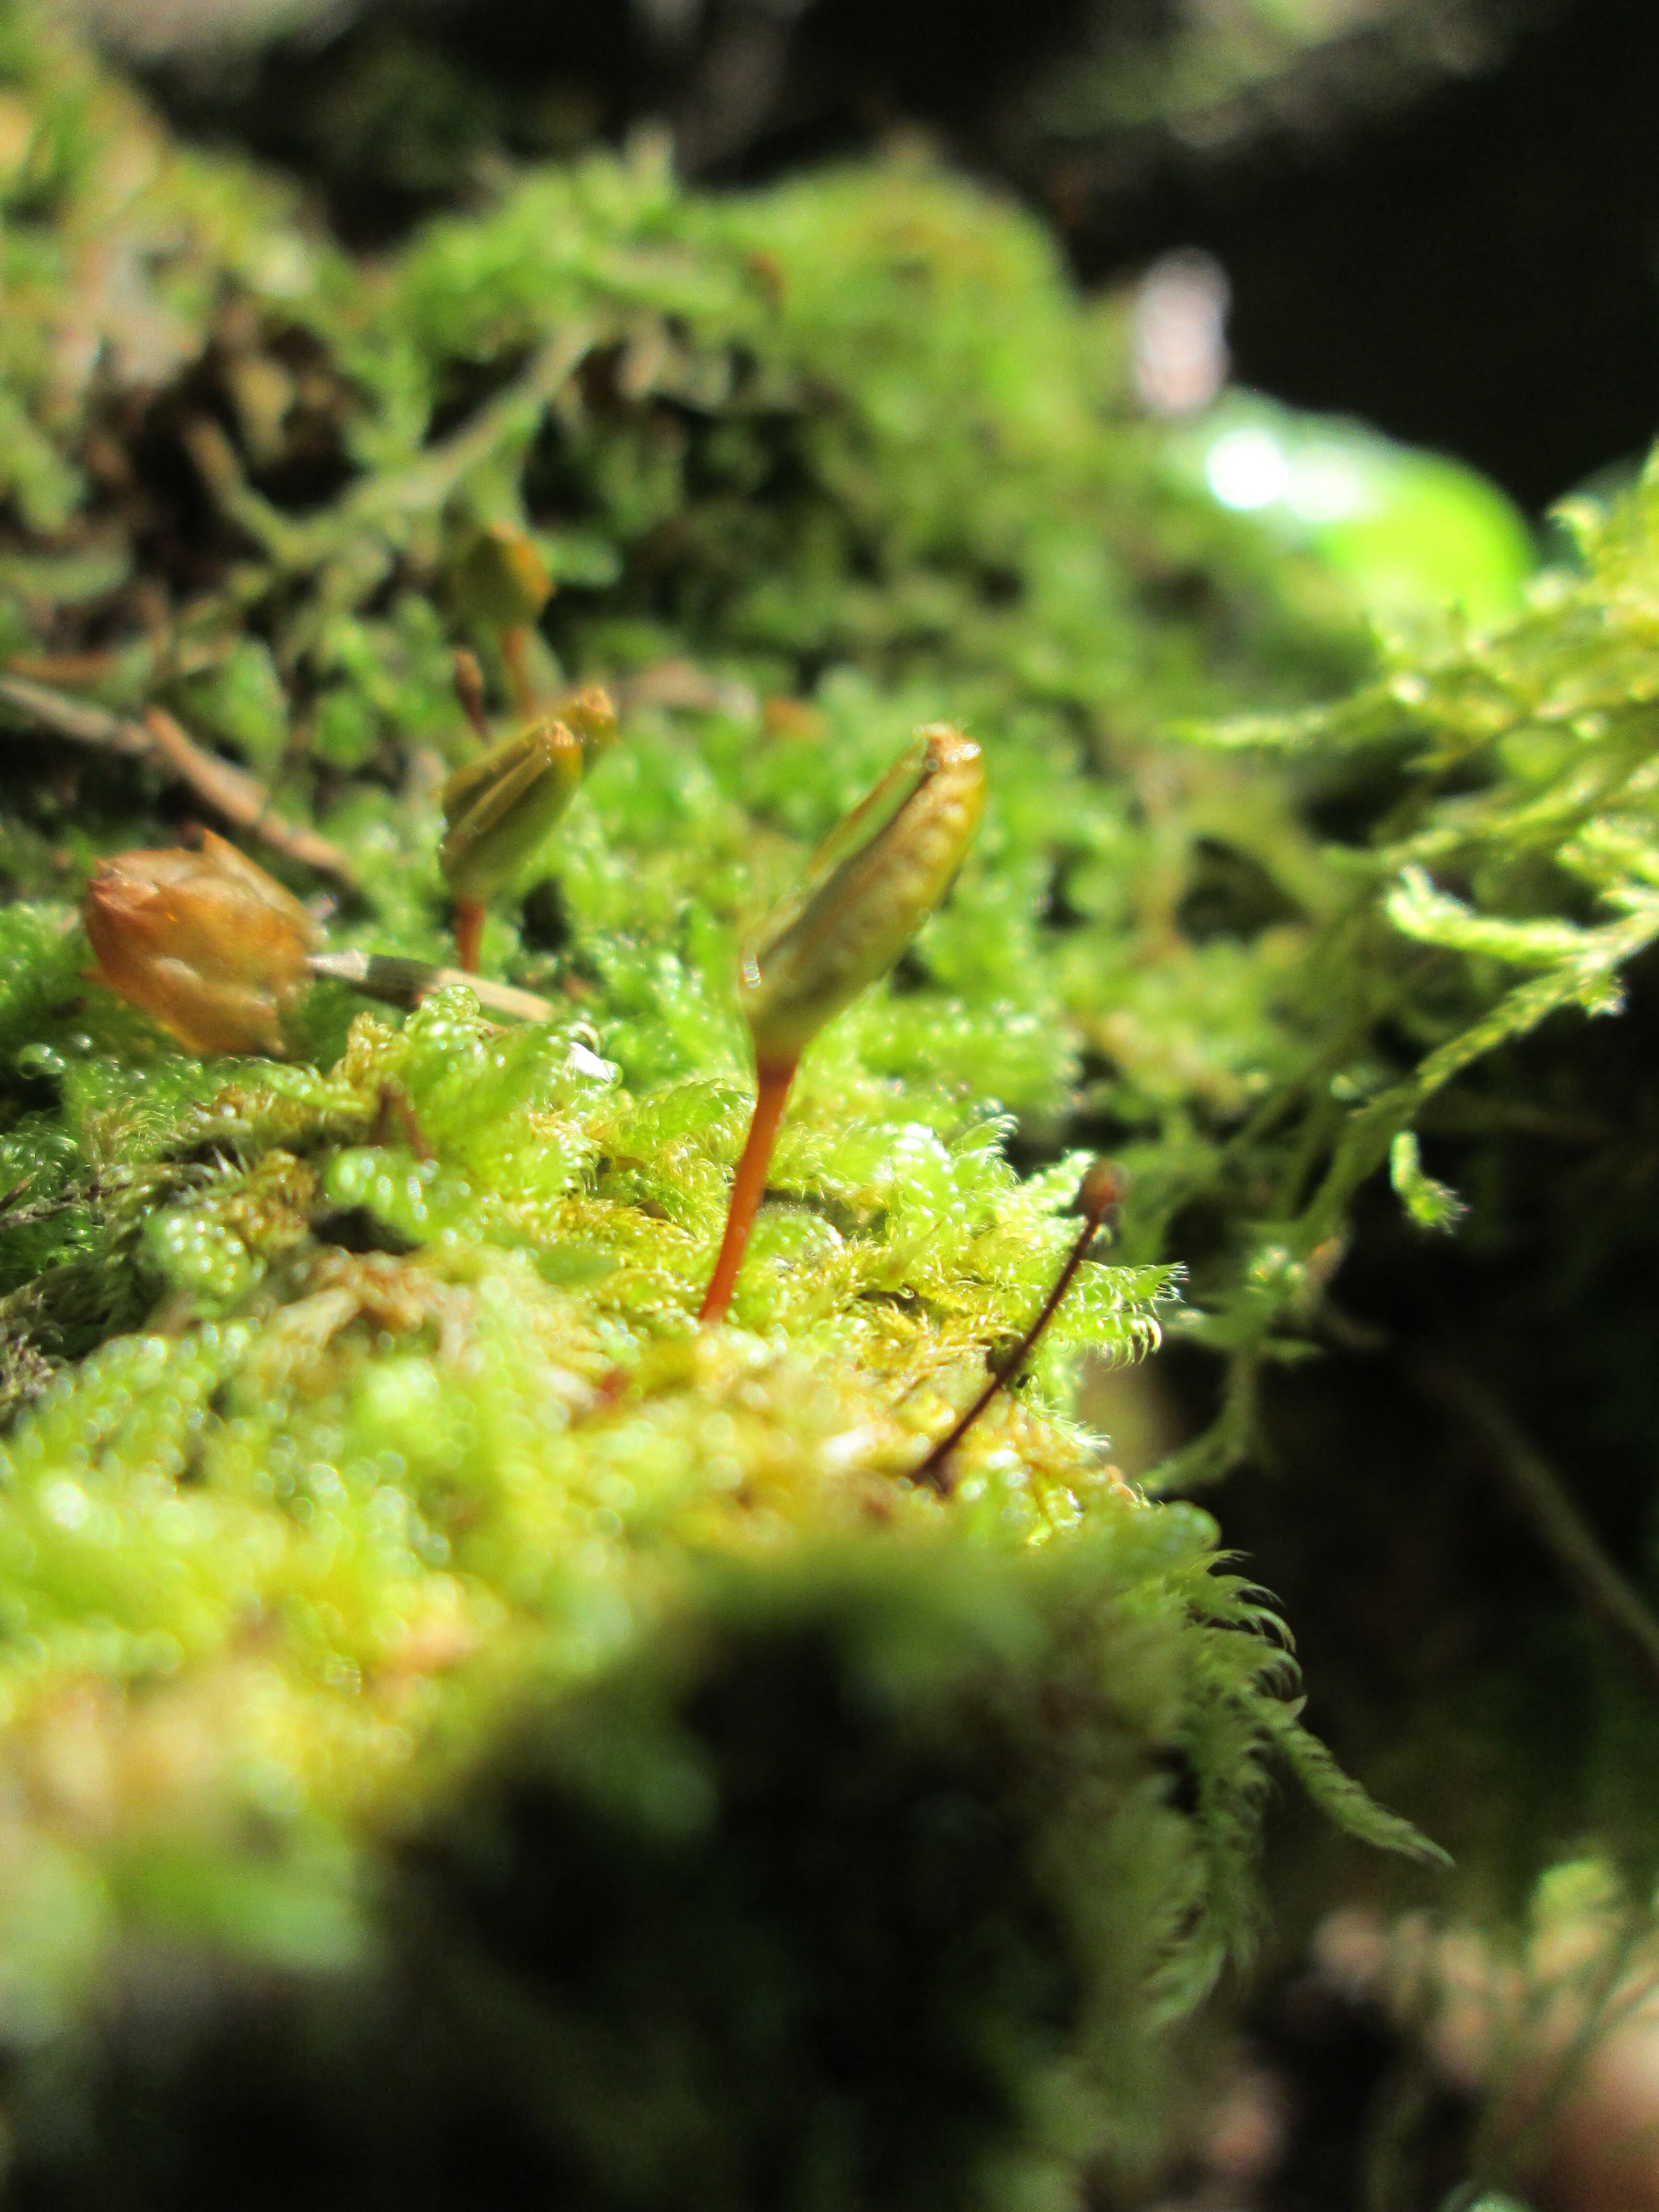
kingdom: Plantae
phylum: Bryophyta
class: Bryopsida
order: Buxbaumiales
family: Buxbaumiaceae
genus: Buxbaumia
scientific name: Buxbaumia viridis
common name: Green shield-moss
